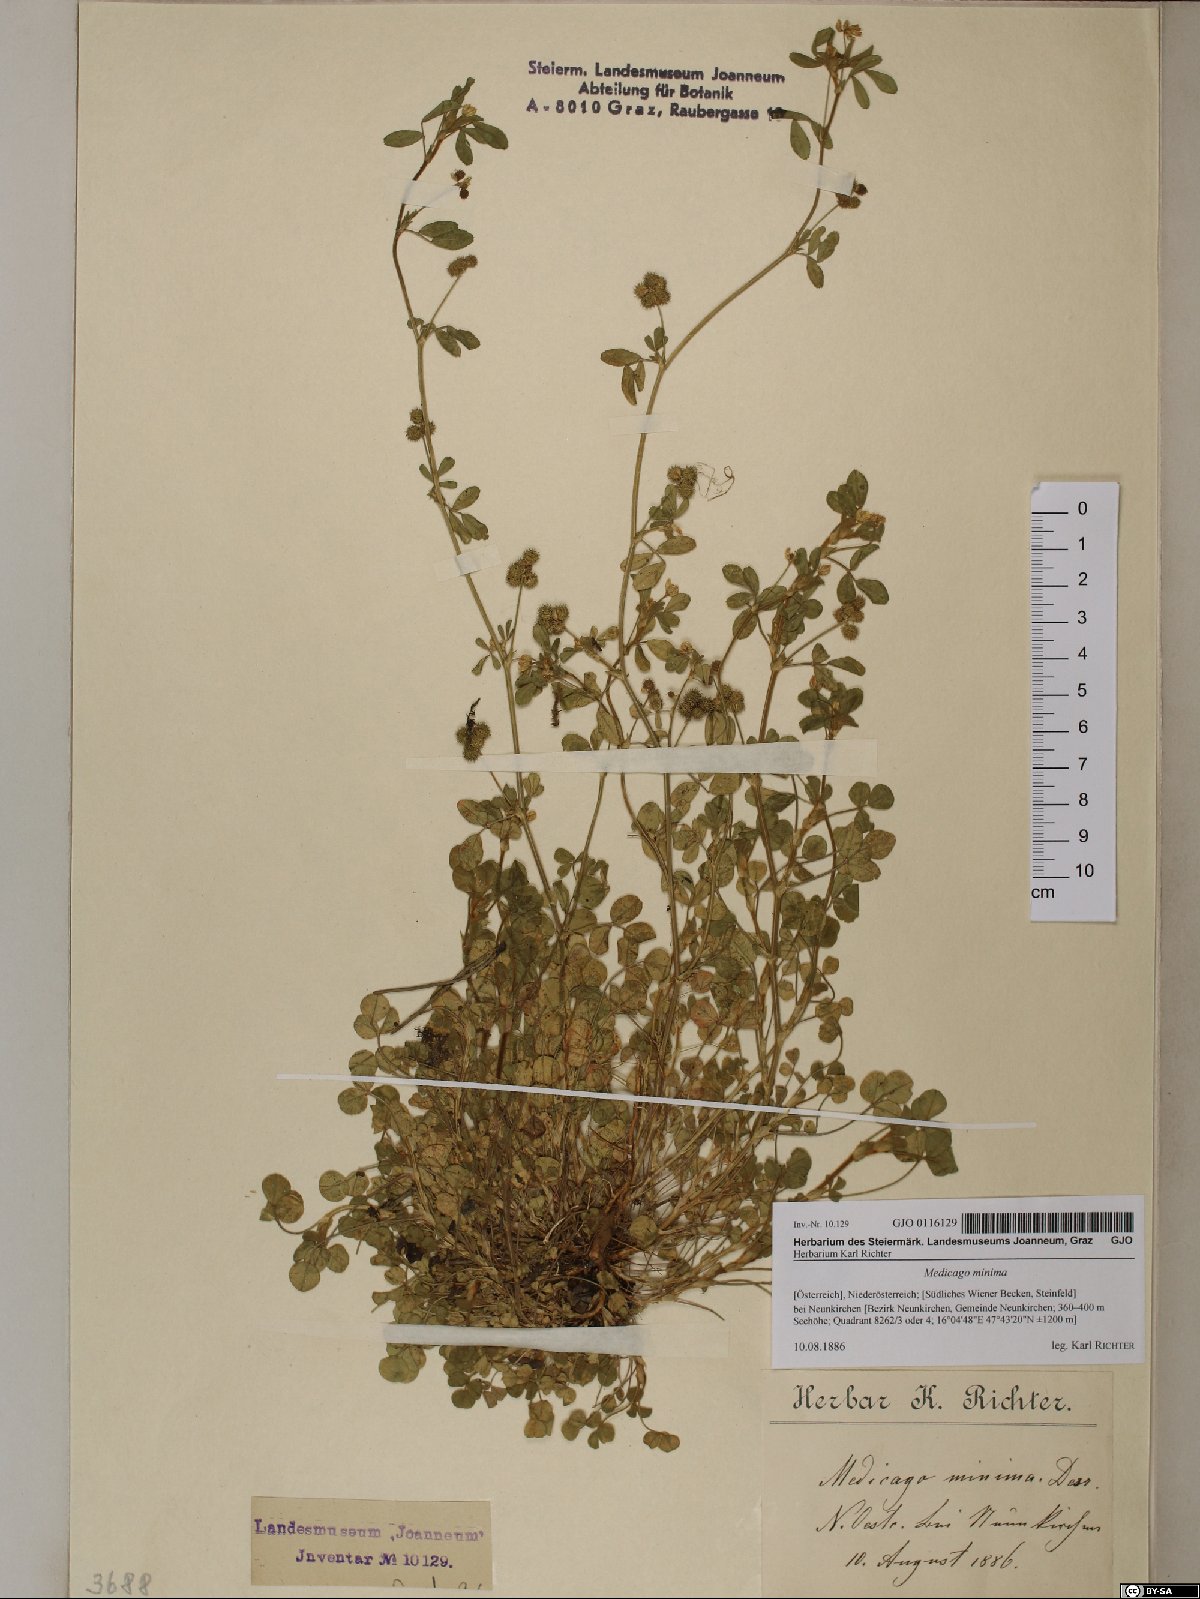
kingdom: Plantae
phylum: Tracheophyta
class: Magnoliopsida
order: Fabales
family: Fabaceae
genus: Medicago
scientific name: Medicago minima
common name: Little bur-clover
